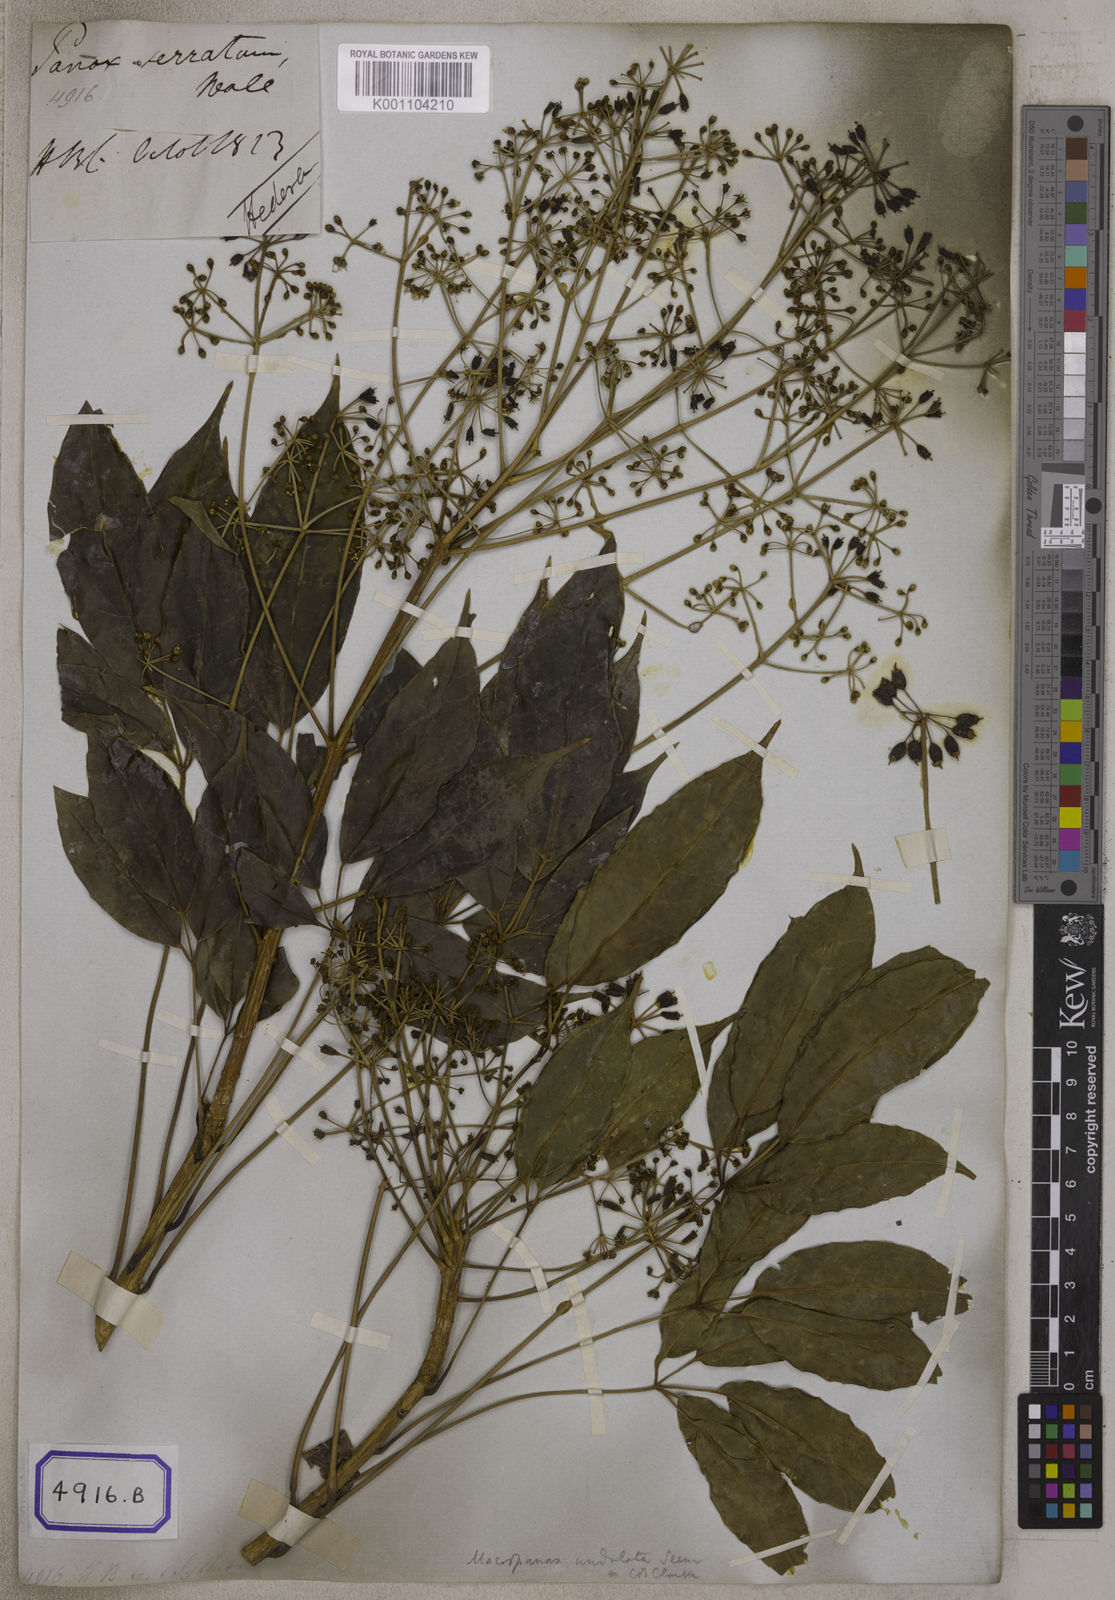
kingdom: Plantae
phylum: Tracheophyta
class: Magnoliopsida
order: Apiales
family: Araliaceae
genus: Hedera
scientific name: Hedera
